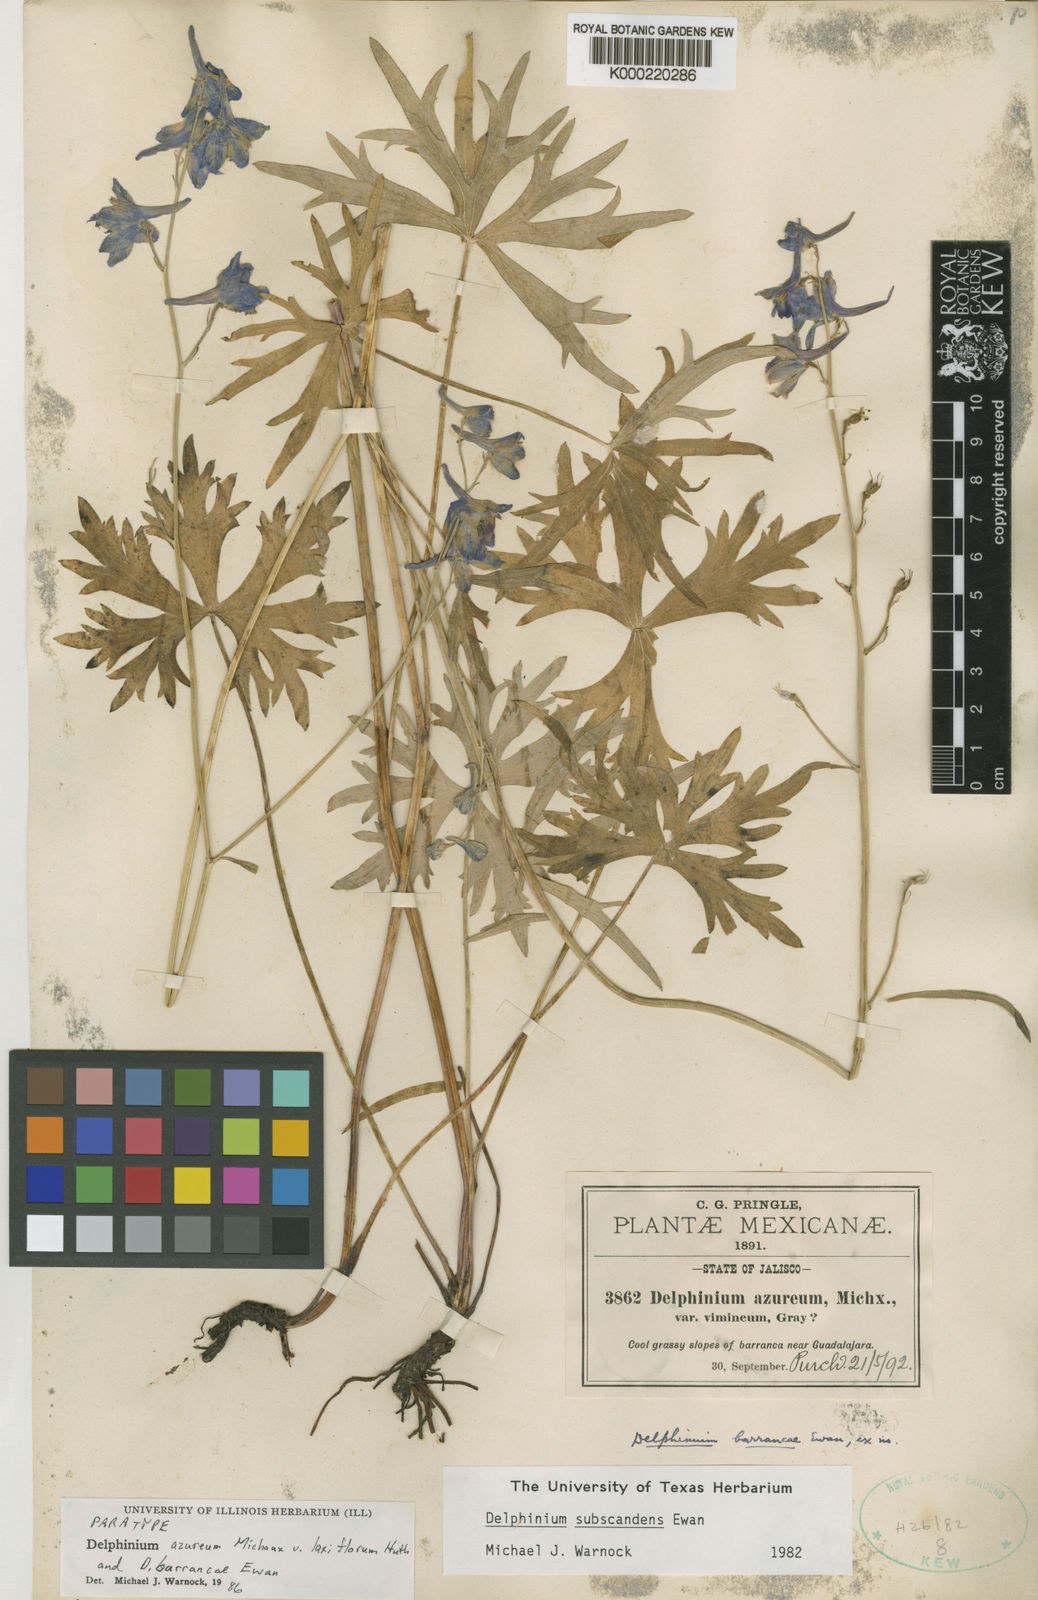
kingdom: Plantae
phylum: Tracheophyta
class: Magnoliopsida
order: Ranunculales
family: Ranunculaceae
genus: Delphinium
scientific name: Delphinium carolinianum
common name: Carolina larkspur
